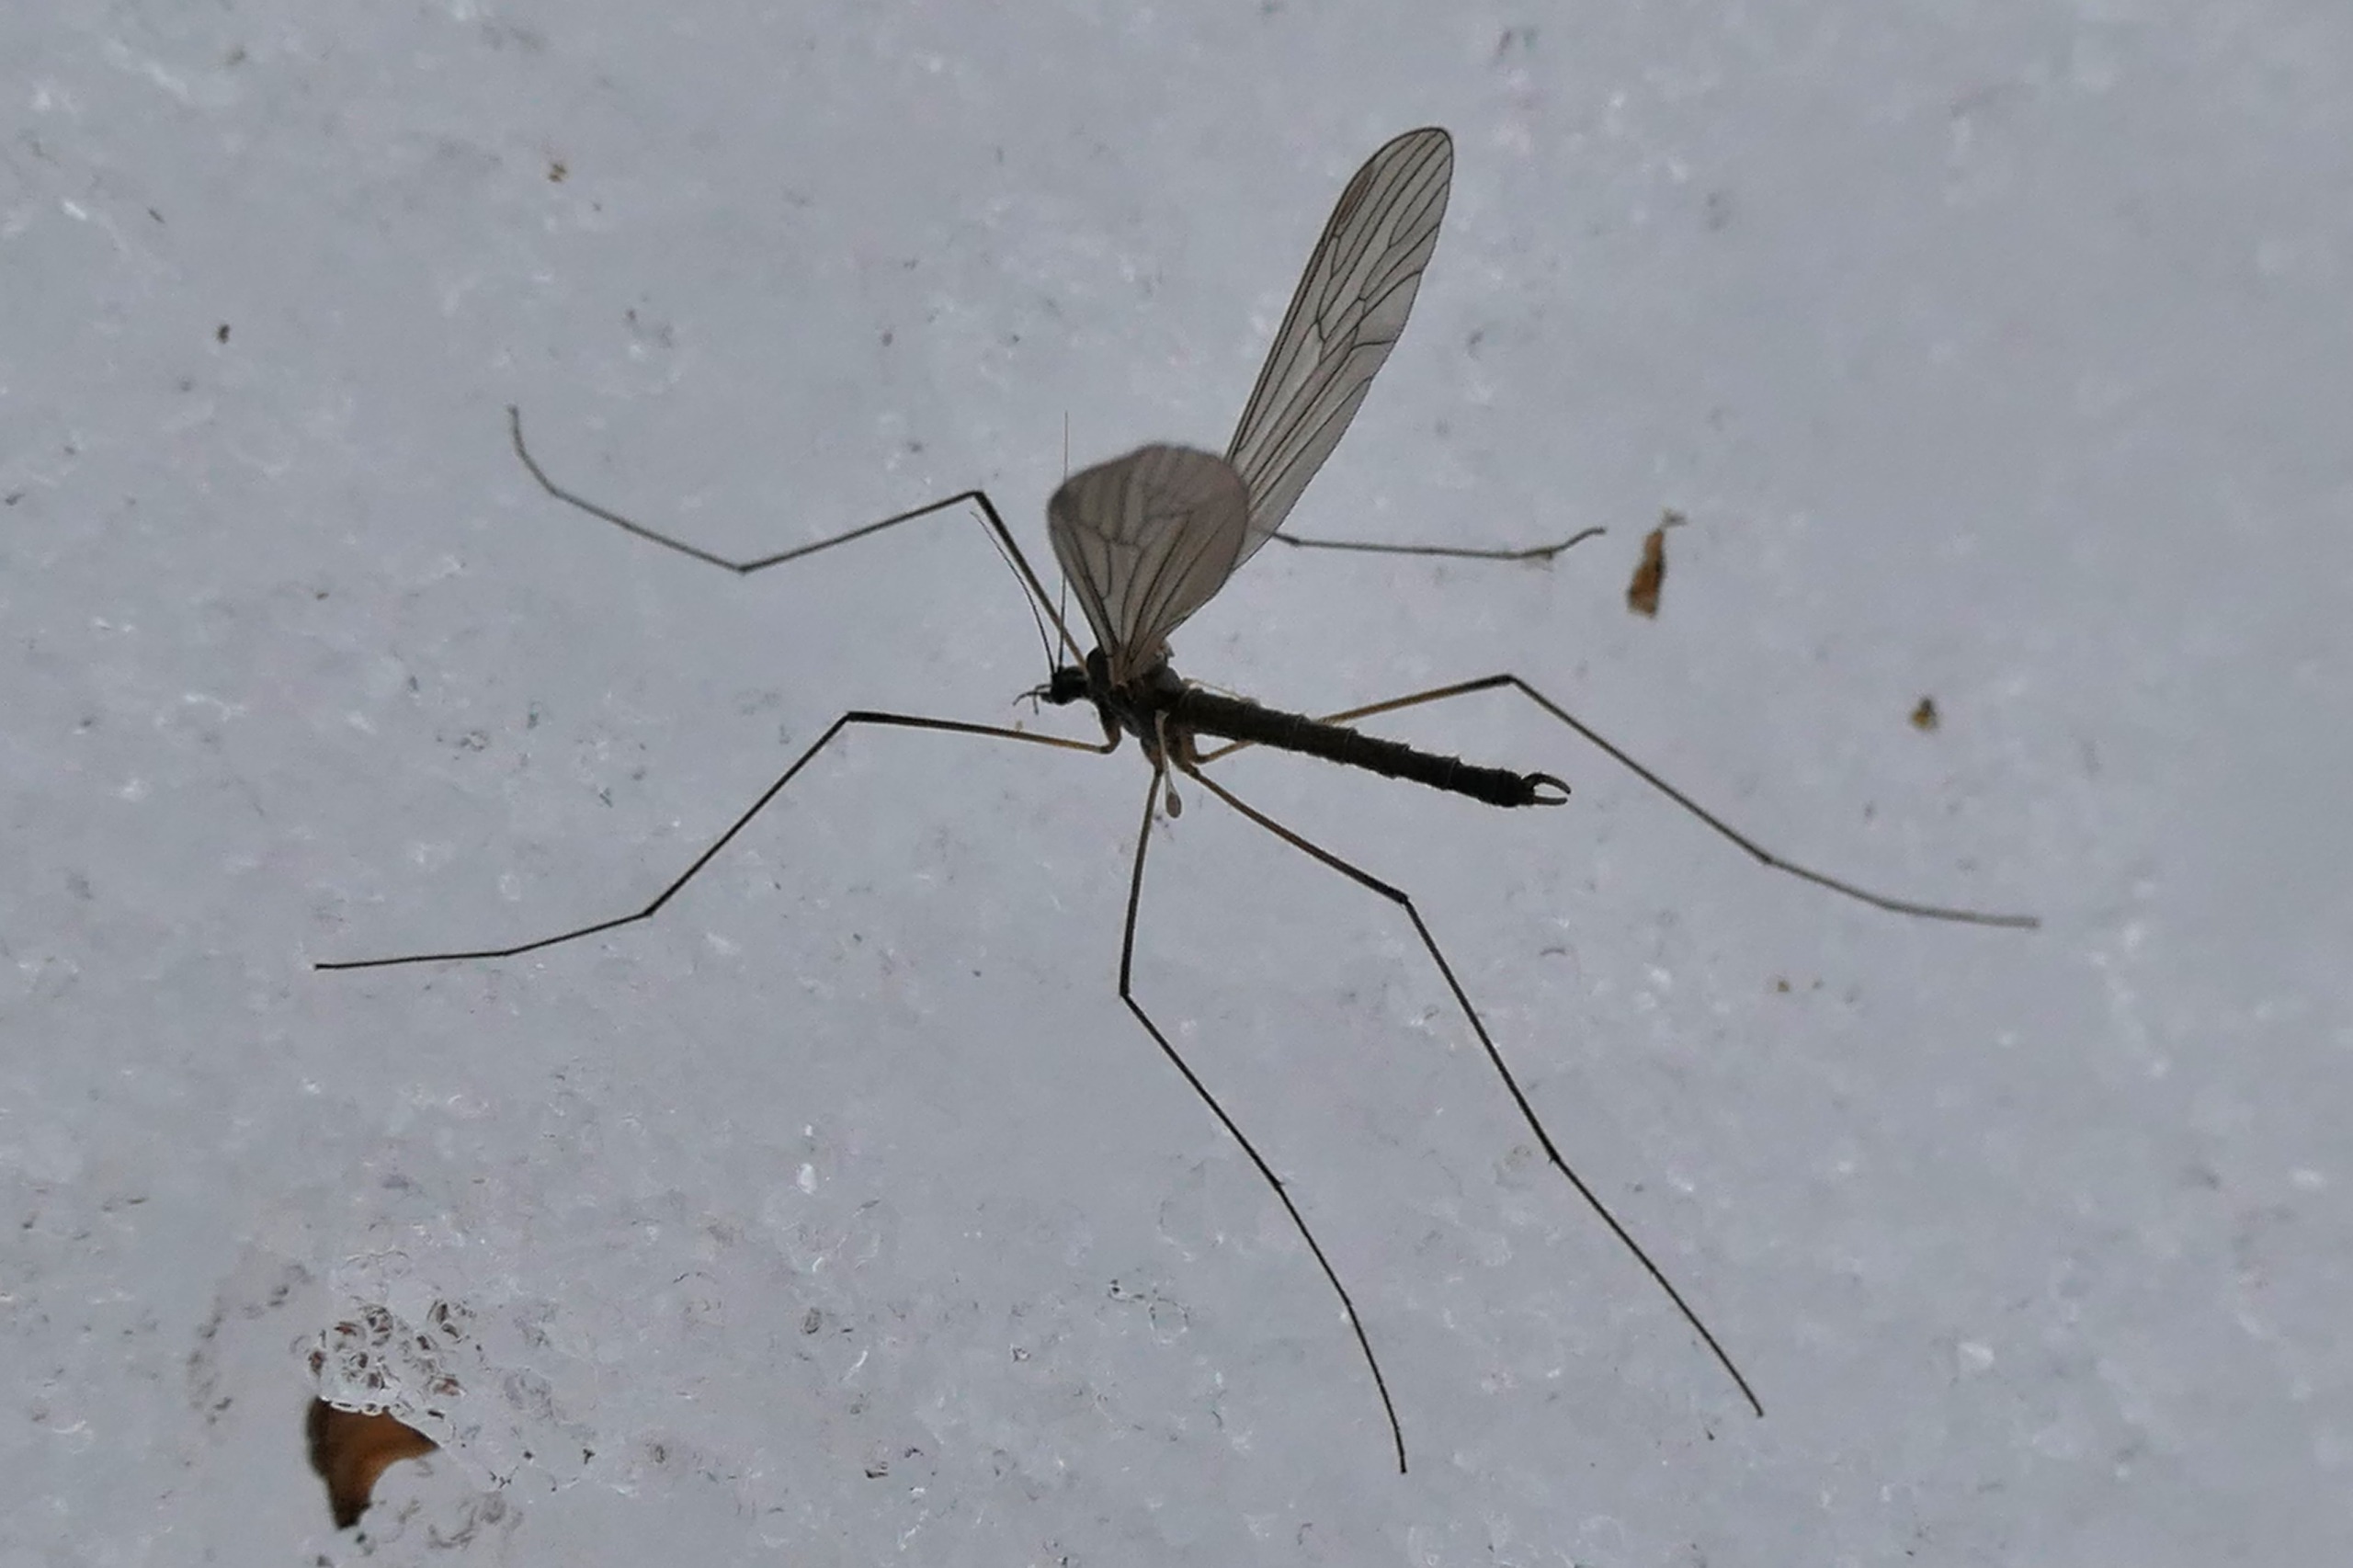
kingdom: Animalia
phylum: Arthropoda
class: Insecta
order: Diptera
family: Trichoceridae
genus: Trichocera
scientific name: Trichocera
